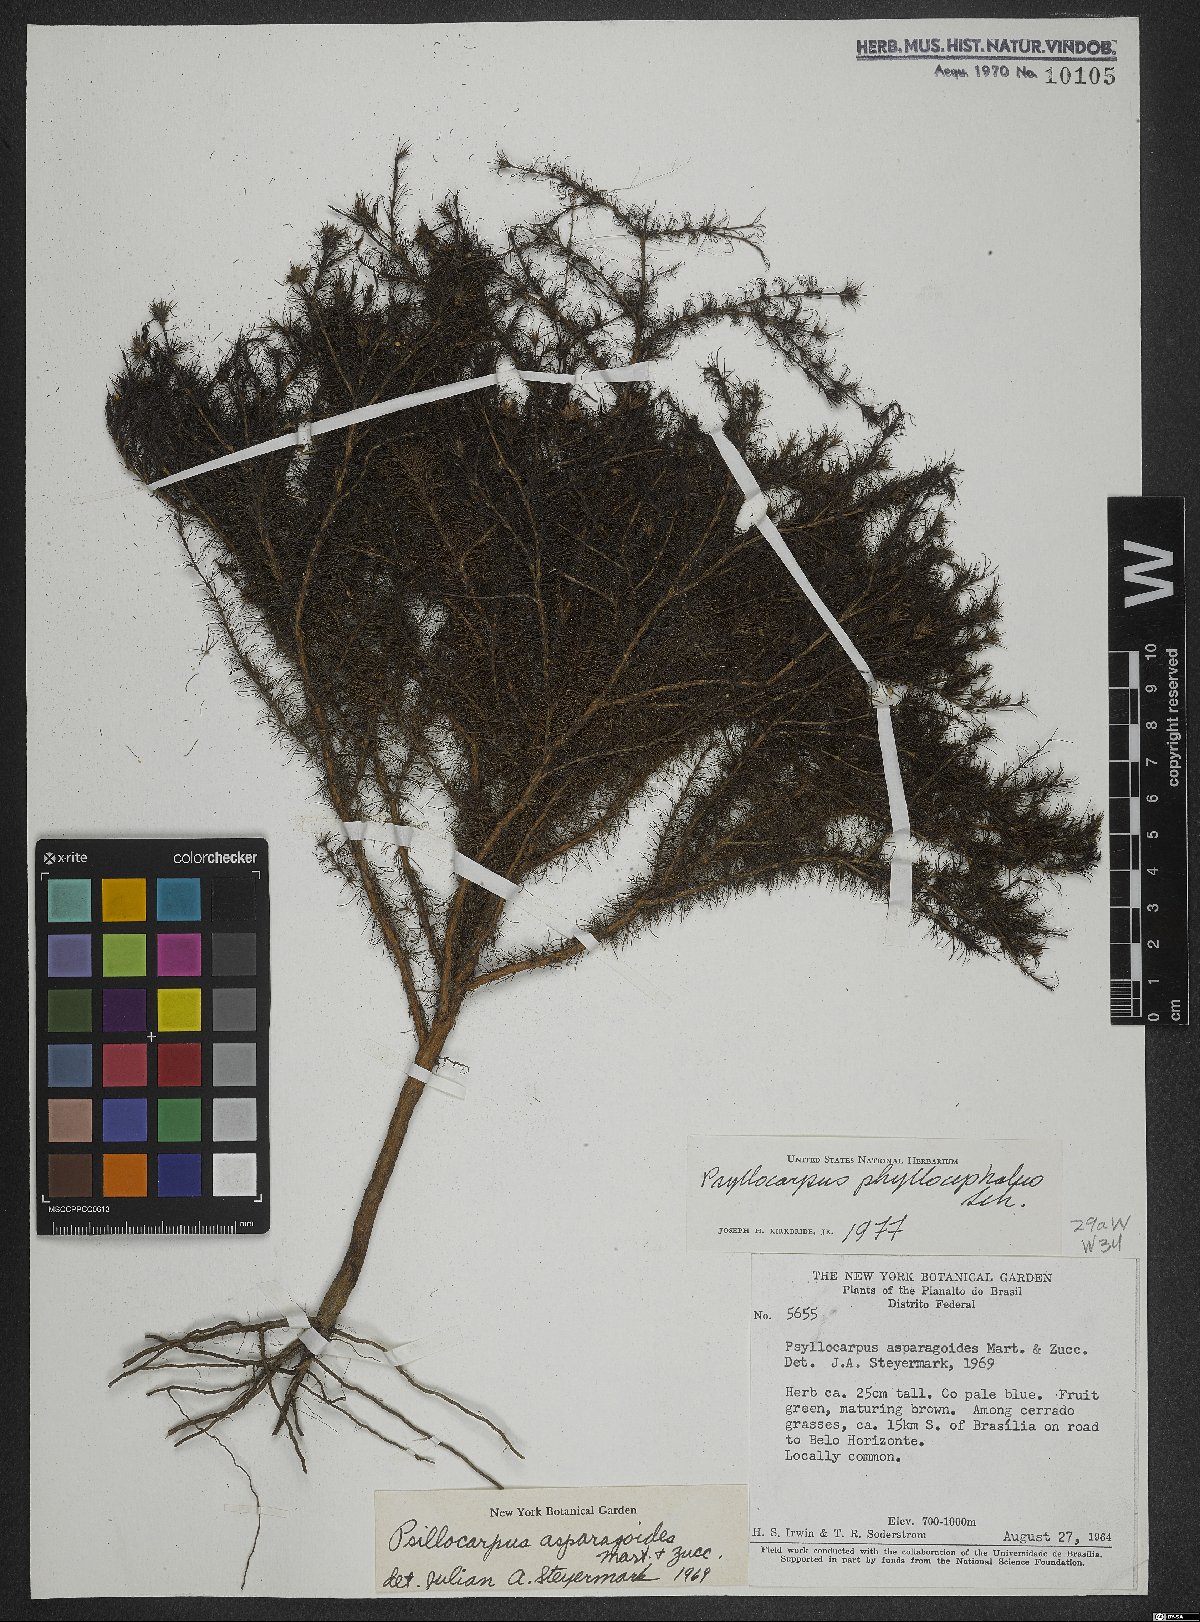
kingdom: Plantae
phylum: Tracheophyta
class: Magnoliopsida
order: Gentianales
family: Rubiaceae
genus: Psyllocarpus
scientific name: Psyllocarpus phyllocephalus
